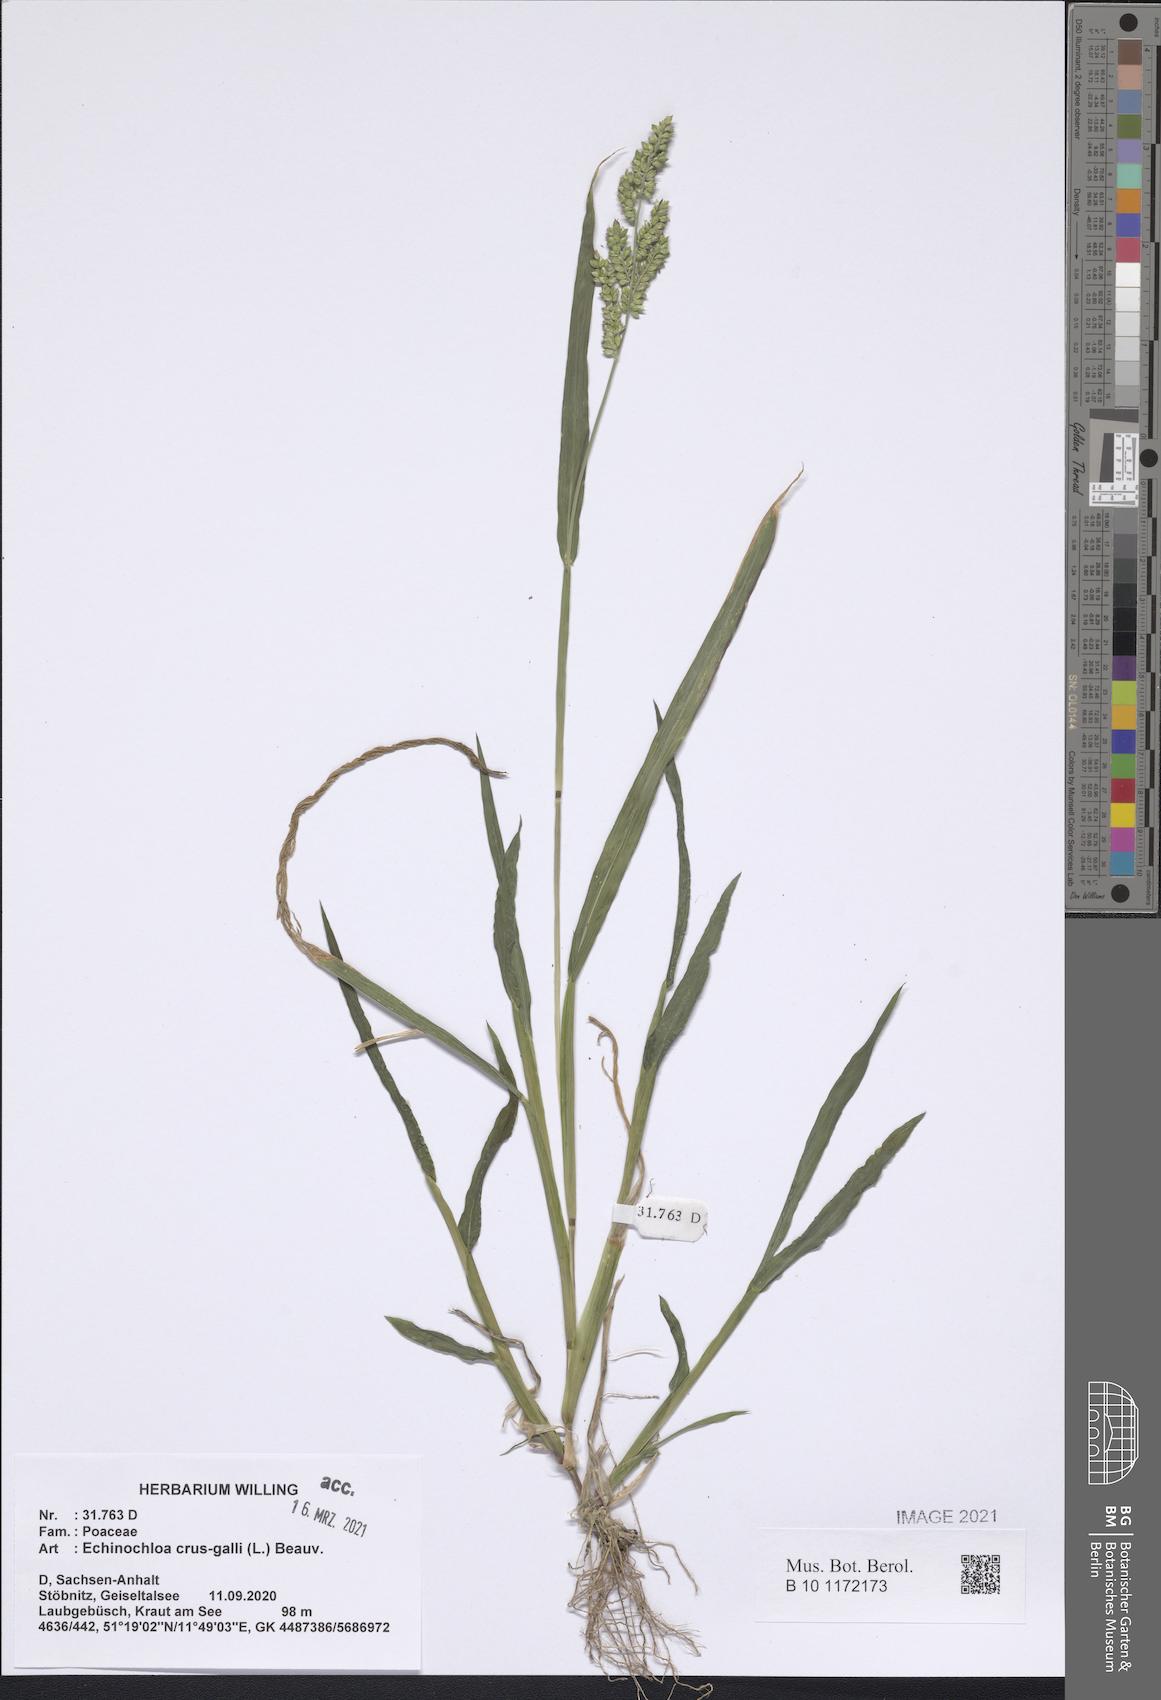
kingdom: Plantae
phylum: Tracheophyta
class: Liliopsida
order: Poales
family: Poaceae
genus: Echinochloa
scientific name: Echinochloa crus-galli
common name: Cockspur
